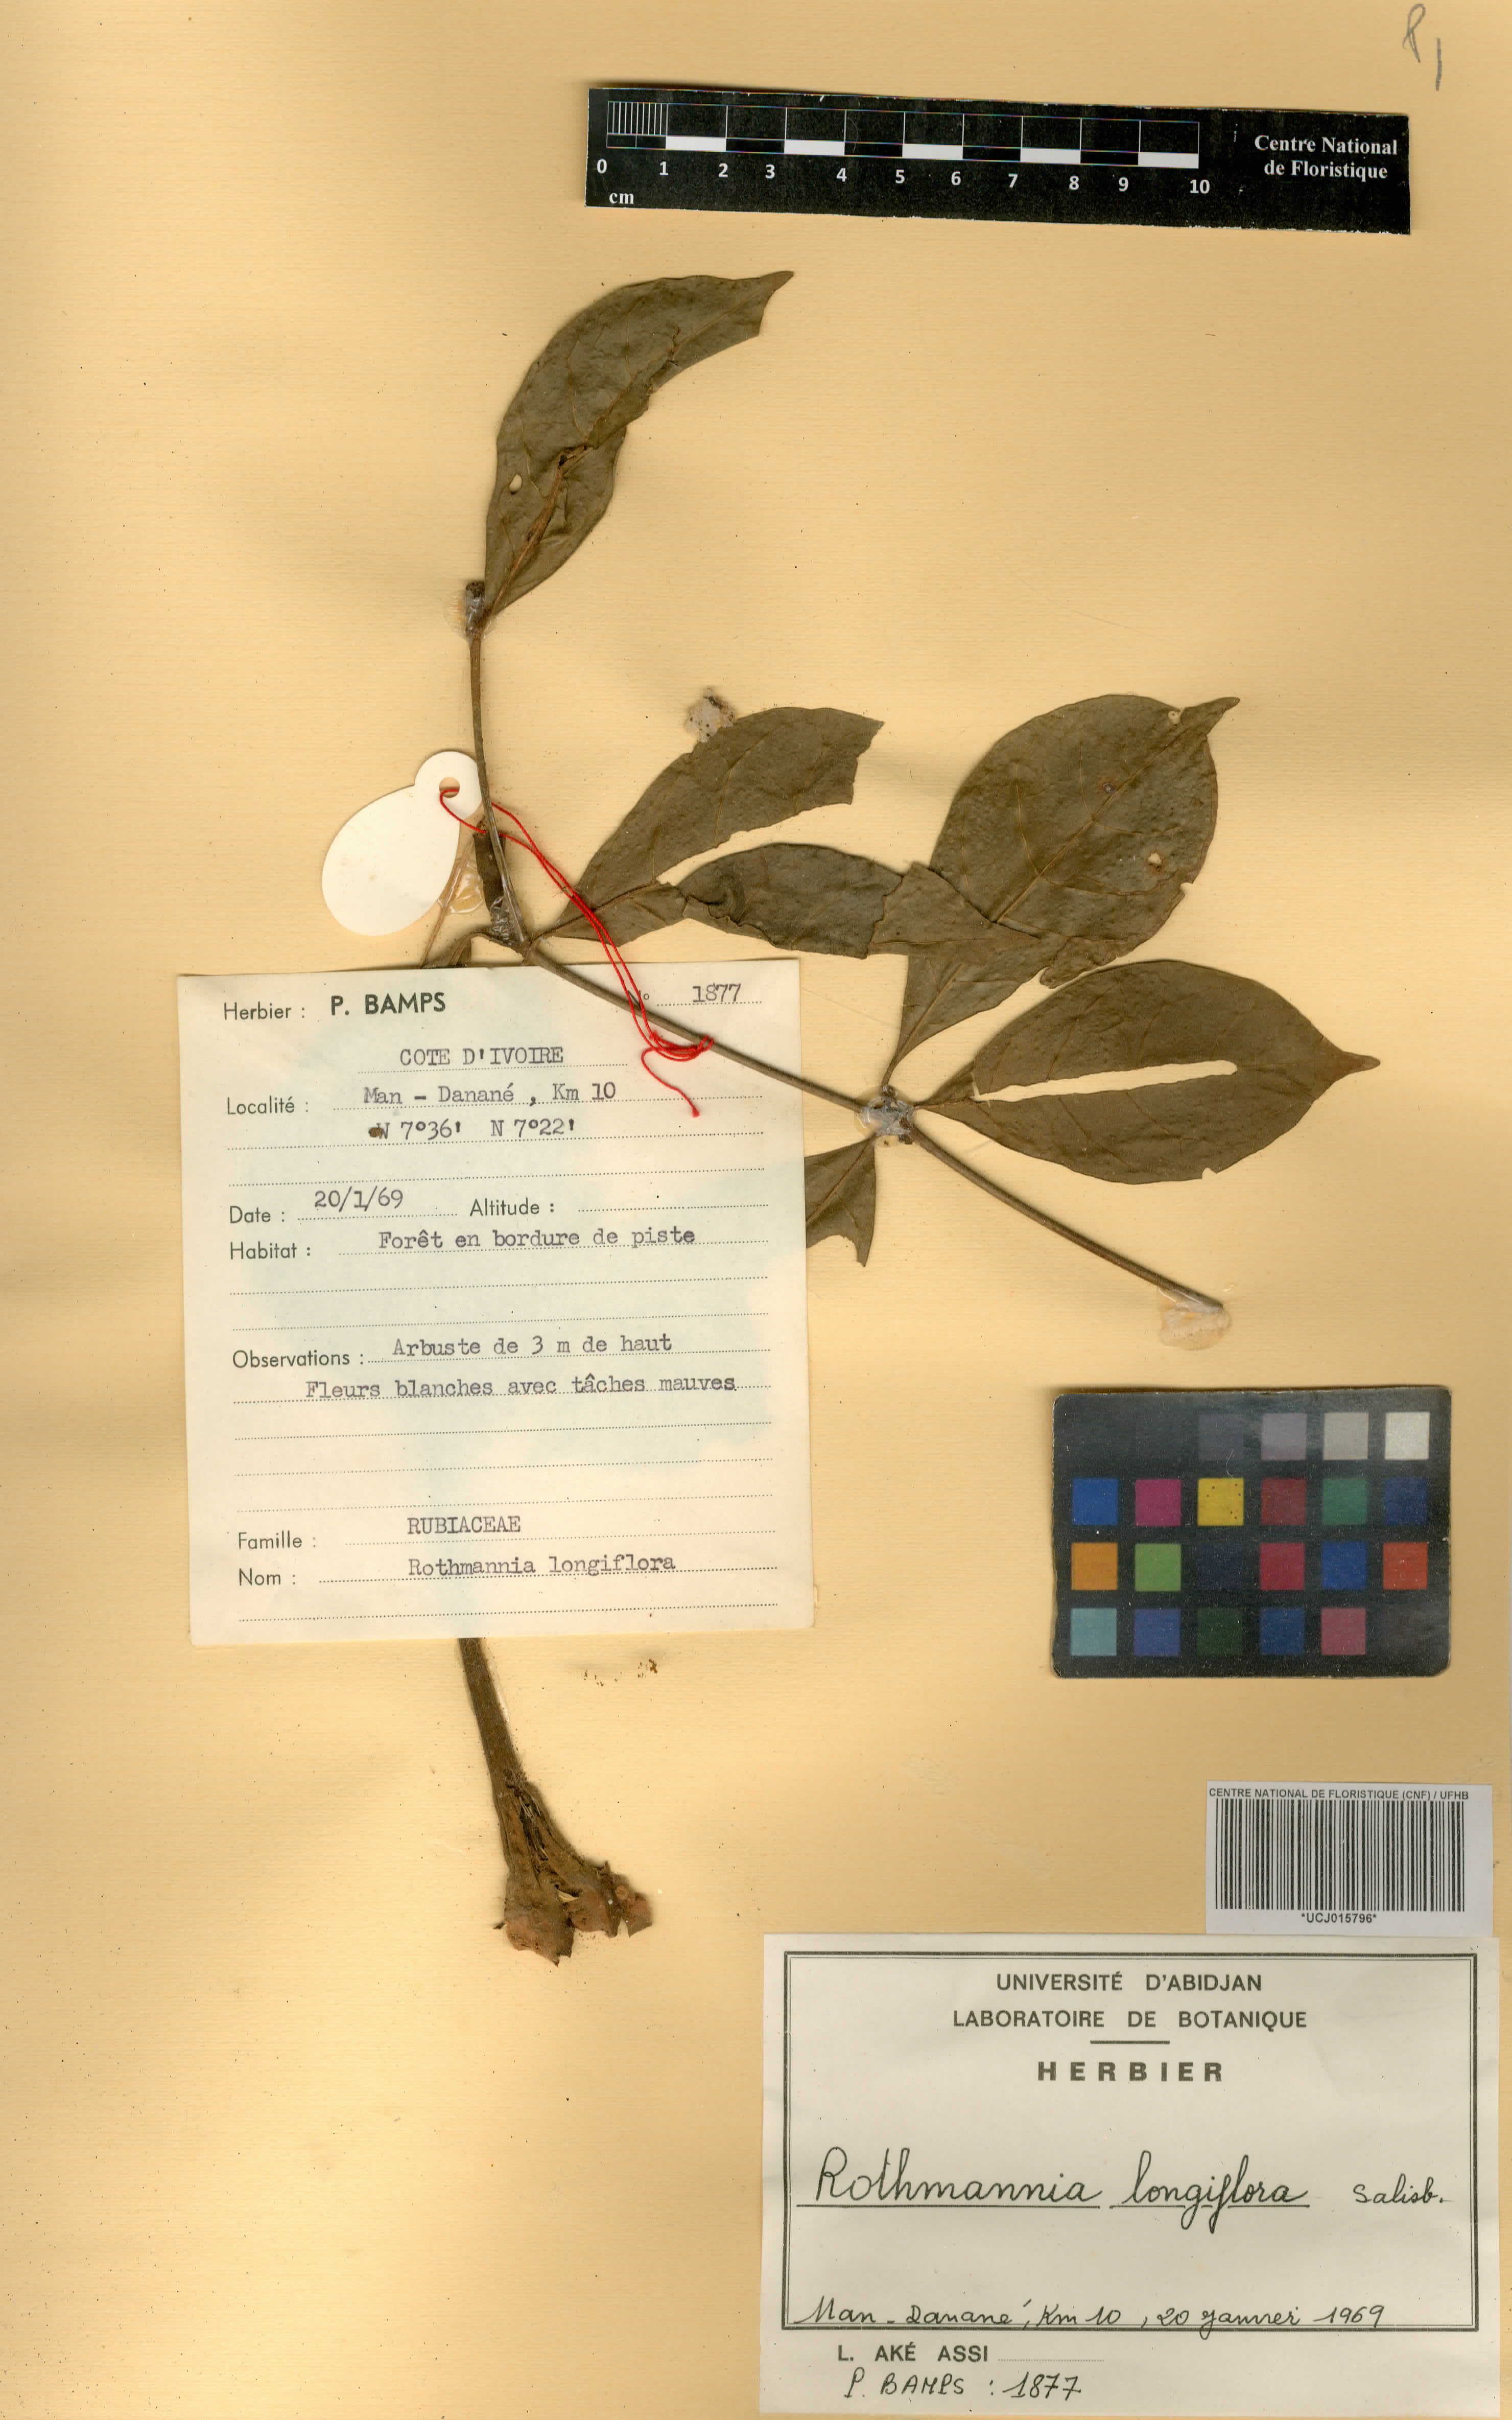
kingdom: Plantae
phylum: Tracheophyta
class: Magnoliopsida
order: Gentianales
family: Rubiaceae
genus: Rothmannia
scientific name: Rothmannia longiflora
